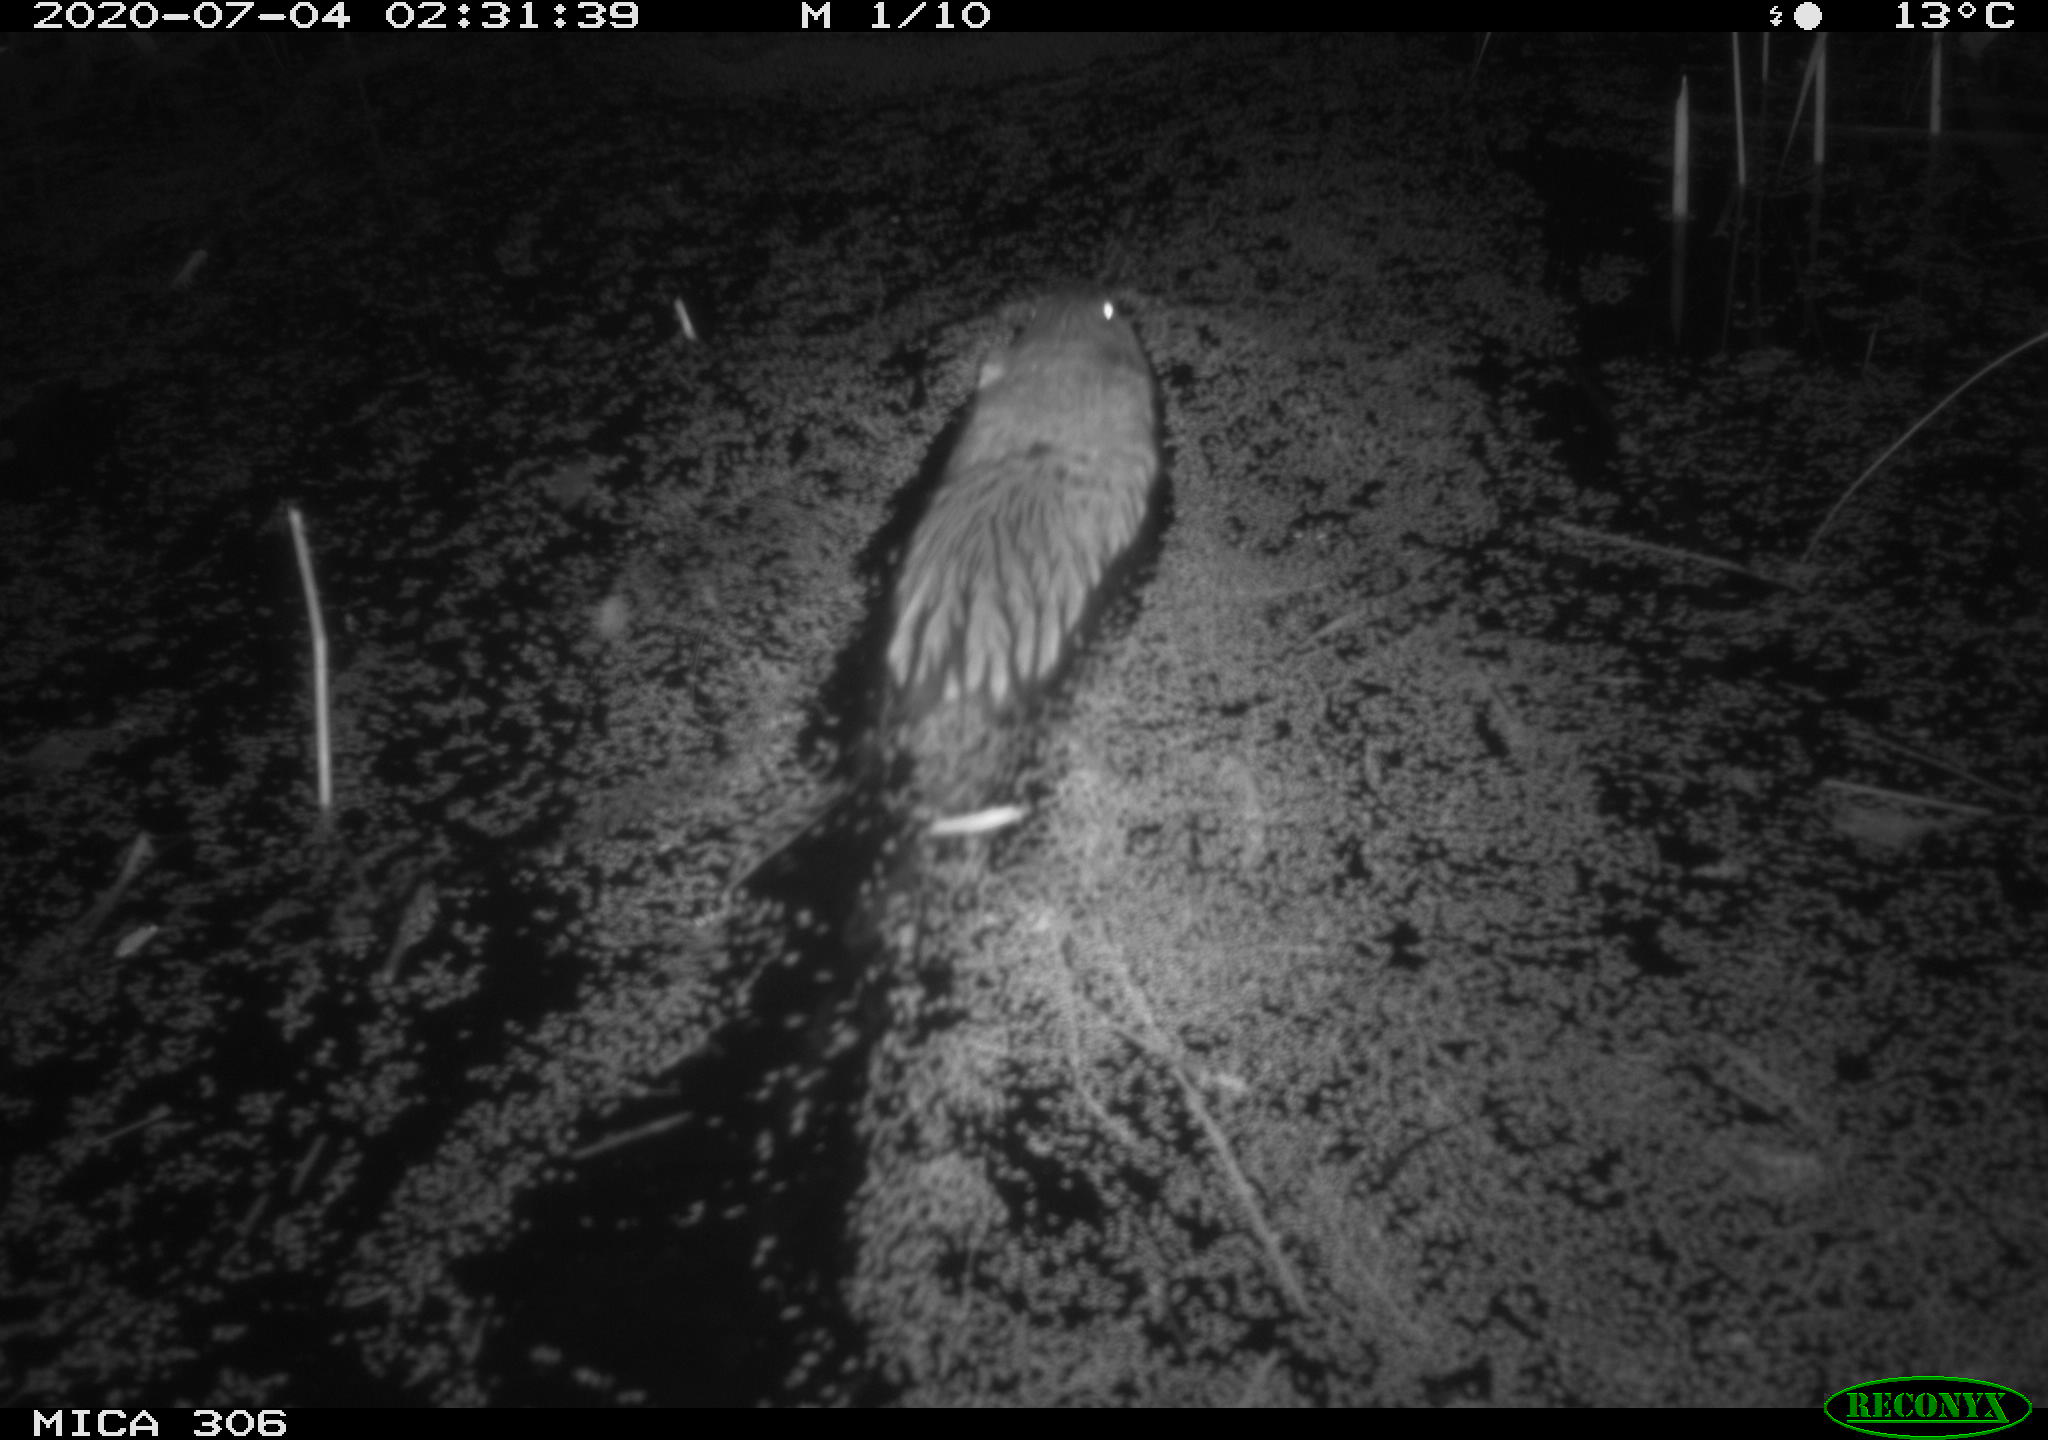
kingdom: Animalia
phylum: Chordata
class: Mammalia
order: Rodentia
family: Muridae
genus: Rattus
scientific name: Rattus norvegicus
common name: Brown rat
